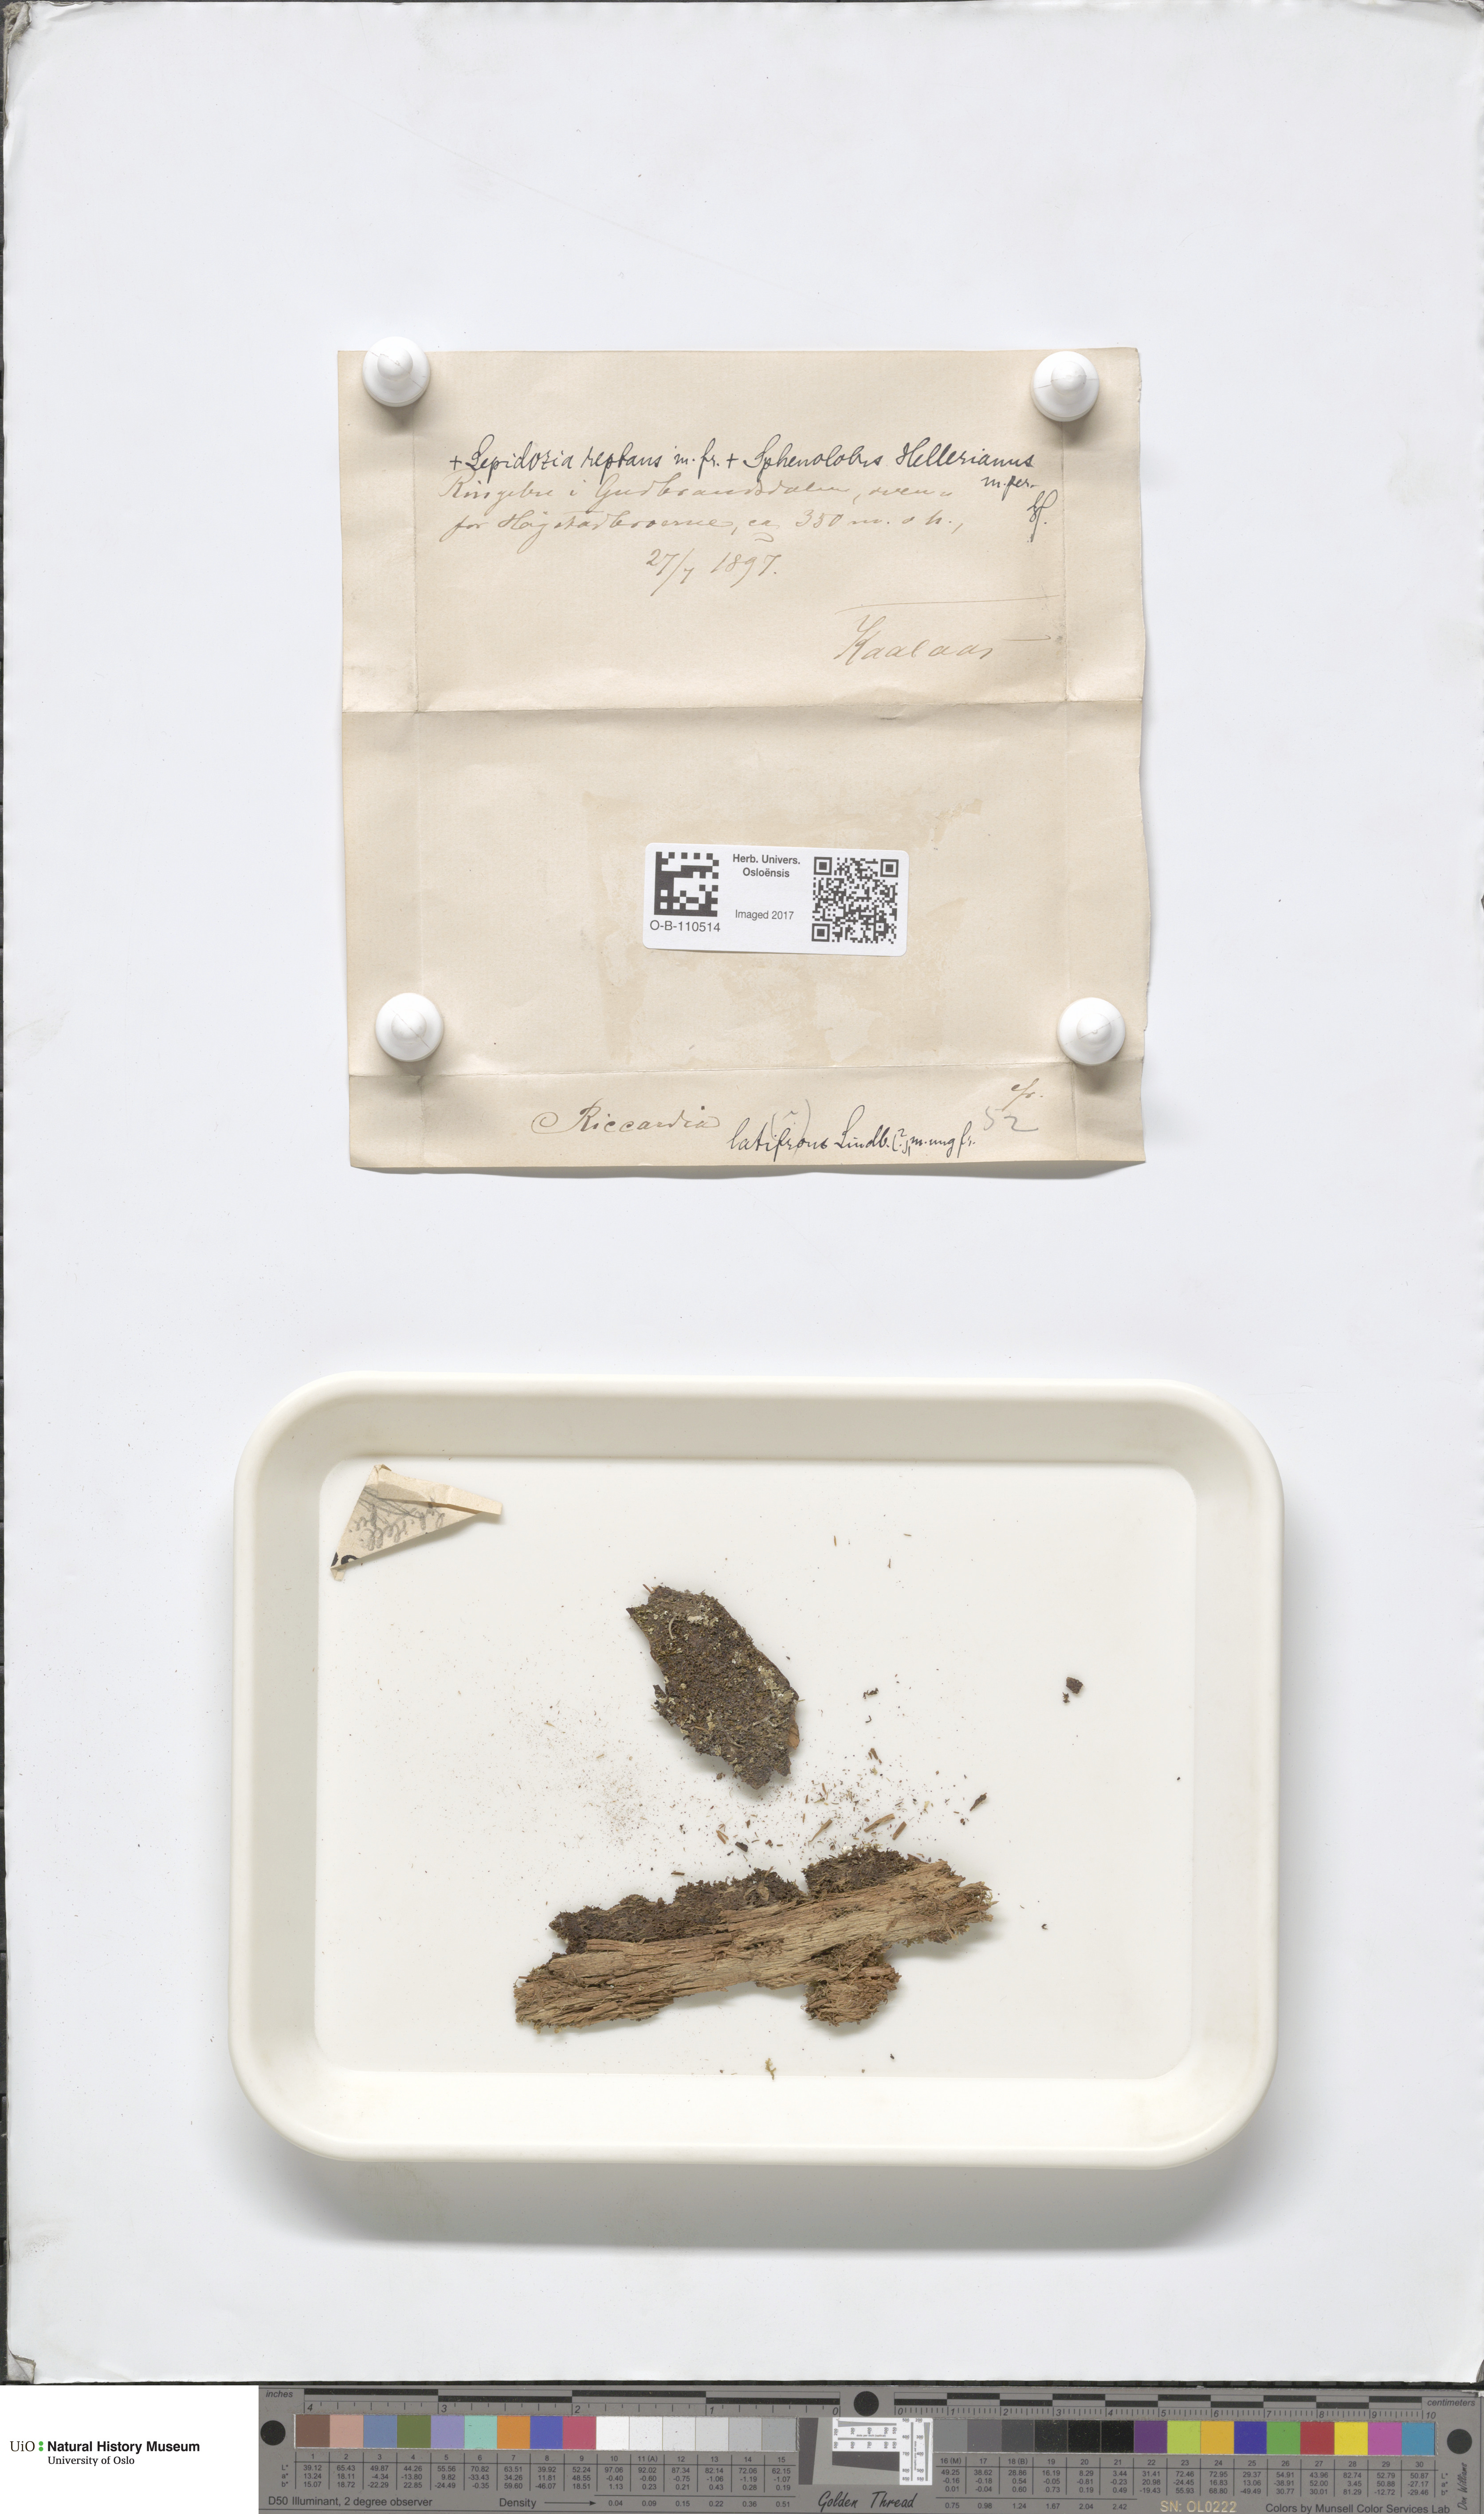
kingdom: Plantae
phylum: Marchantiophyta
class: Jungermanniopsida
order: Metzgeriales
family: Aneuraceae
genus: Riccardia
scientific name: Riccardia latifrons
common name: Bog germanderwort
